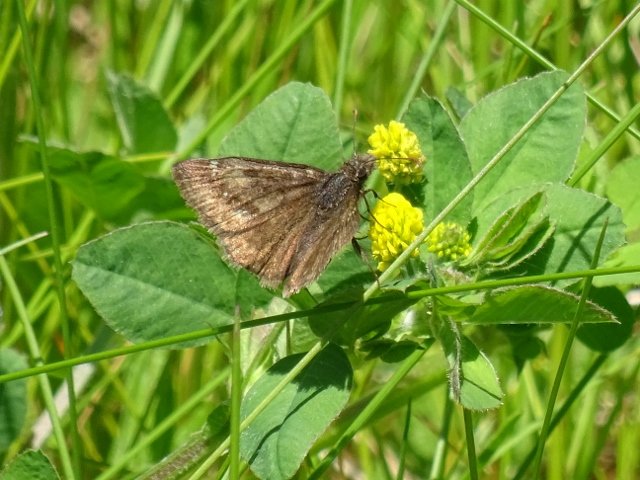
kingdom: Animalia
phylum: Arthropoda
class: Insecta
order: Lepidoptera
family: Hesperiidae
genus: Gesta
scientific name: Gesta
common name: Wild Indigo Duskywing
